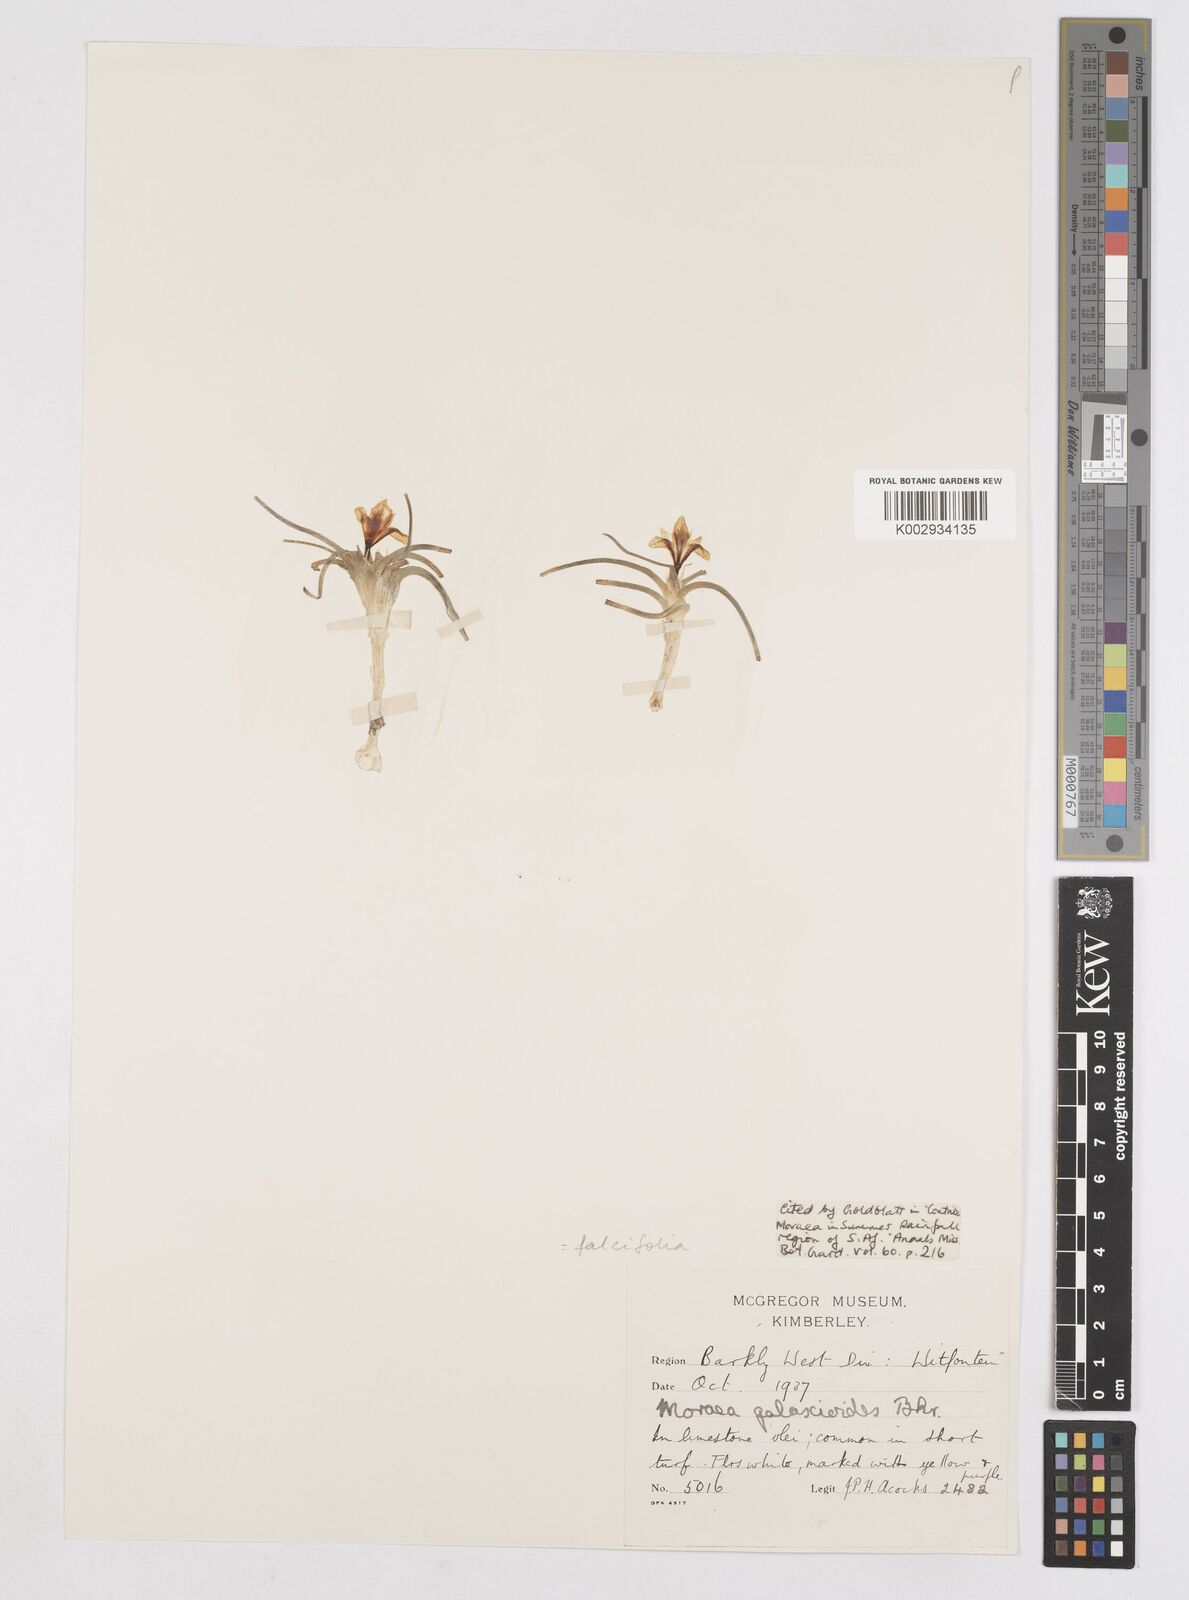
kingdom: Plantae
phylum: Tracheophyta
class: Liliopsida
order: Asparagales
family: Iridaceae
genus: Moraea
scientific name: Moraea falcifolia
